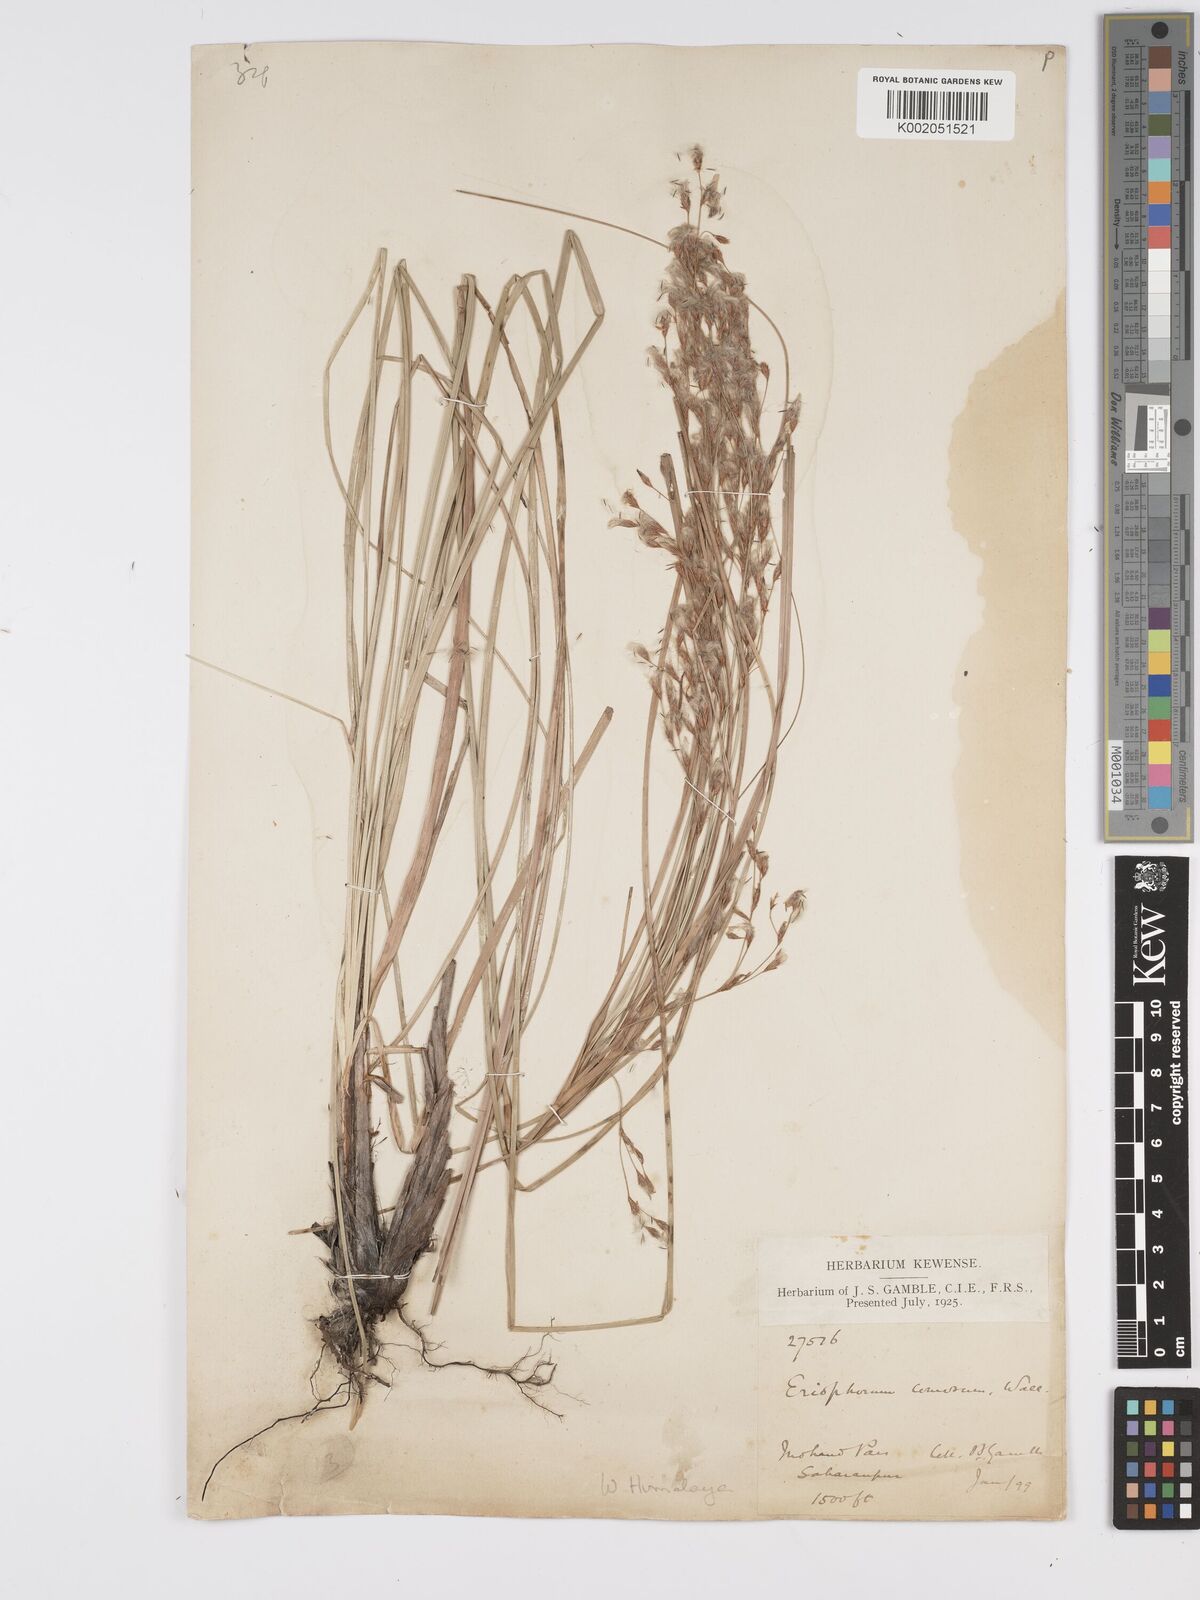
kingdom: Plantae
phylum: Tracheophyta
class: Liliopsida
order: Poales
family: Cyperaceae
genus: Erioscirpus
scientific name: Erioscirpus comosus
